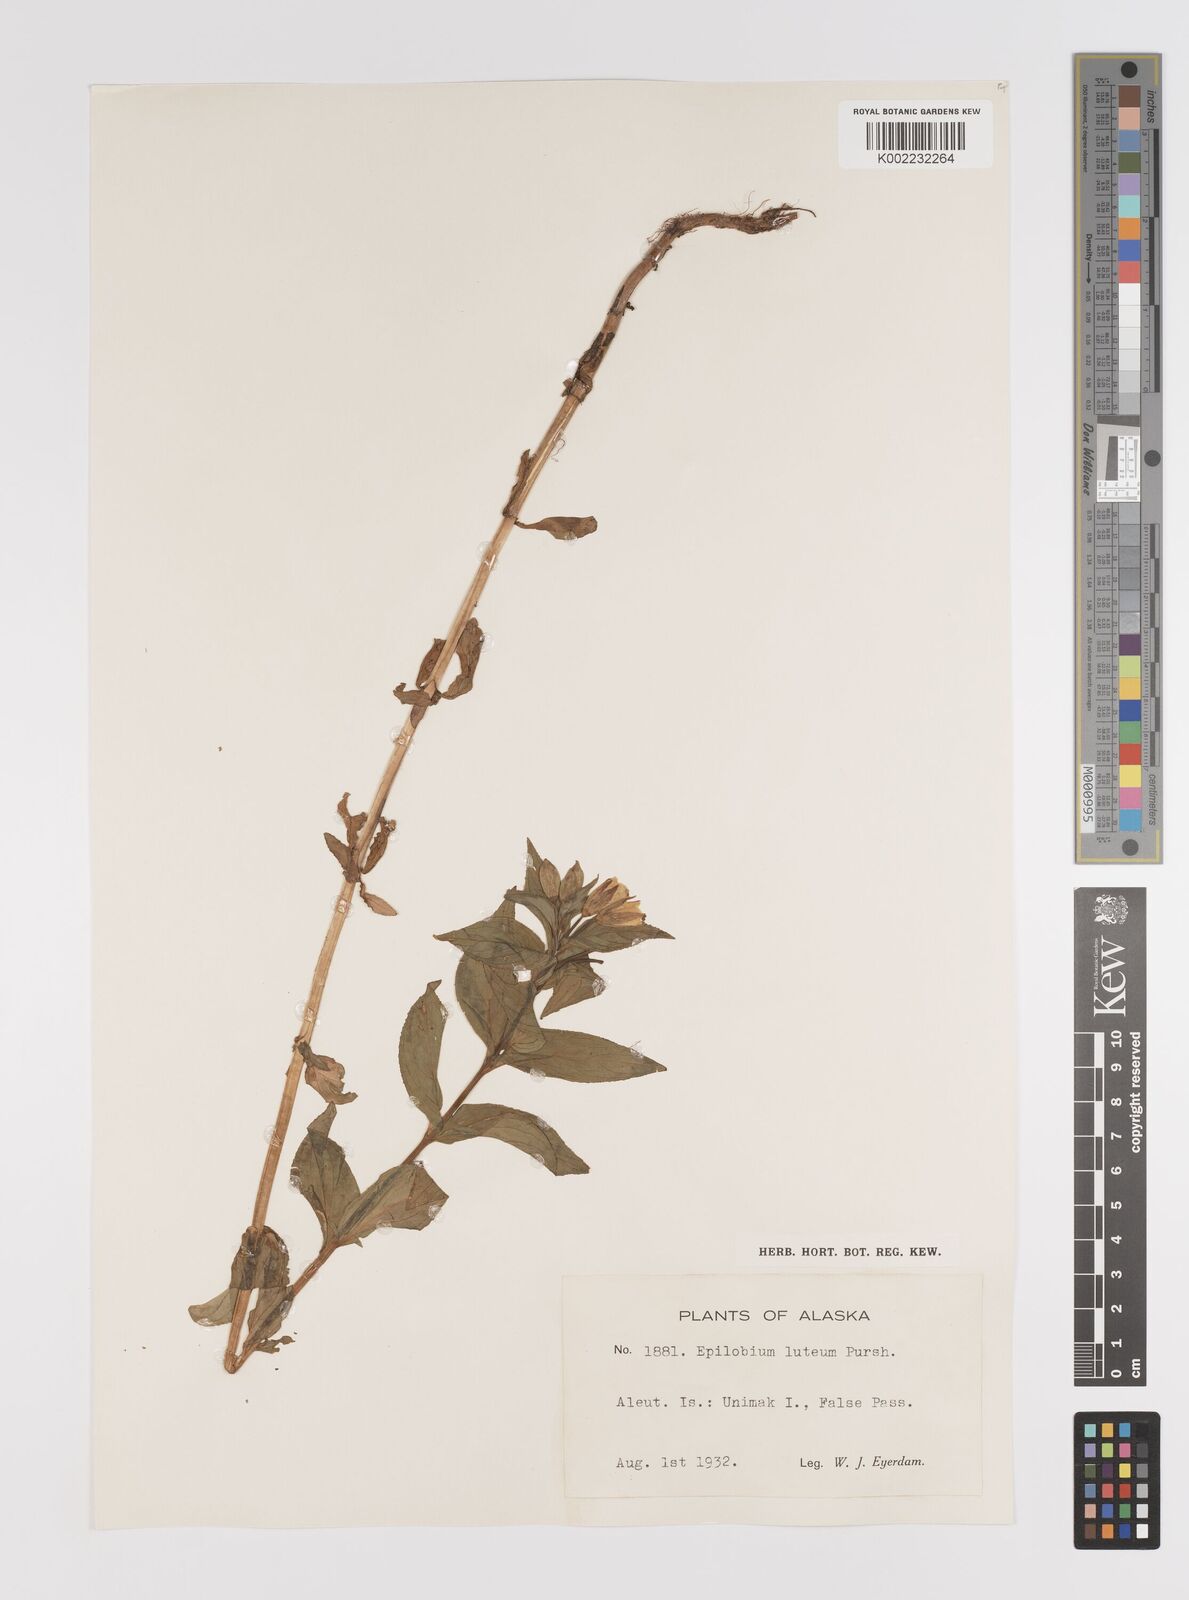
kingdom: Plantae
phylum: Tracheophyta
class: Magnoliopsida
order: Myrtales
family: Onagraceae
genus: Epilobium
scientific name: Epilobium luteum
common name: Yellow willowherb
